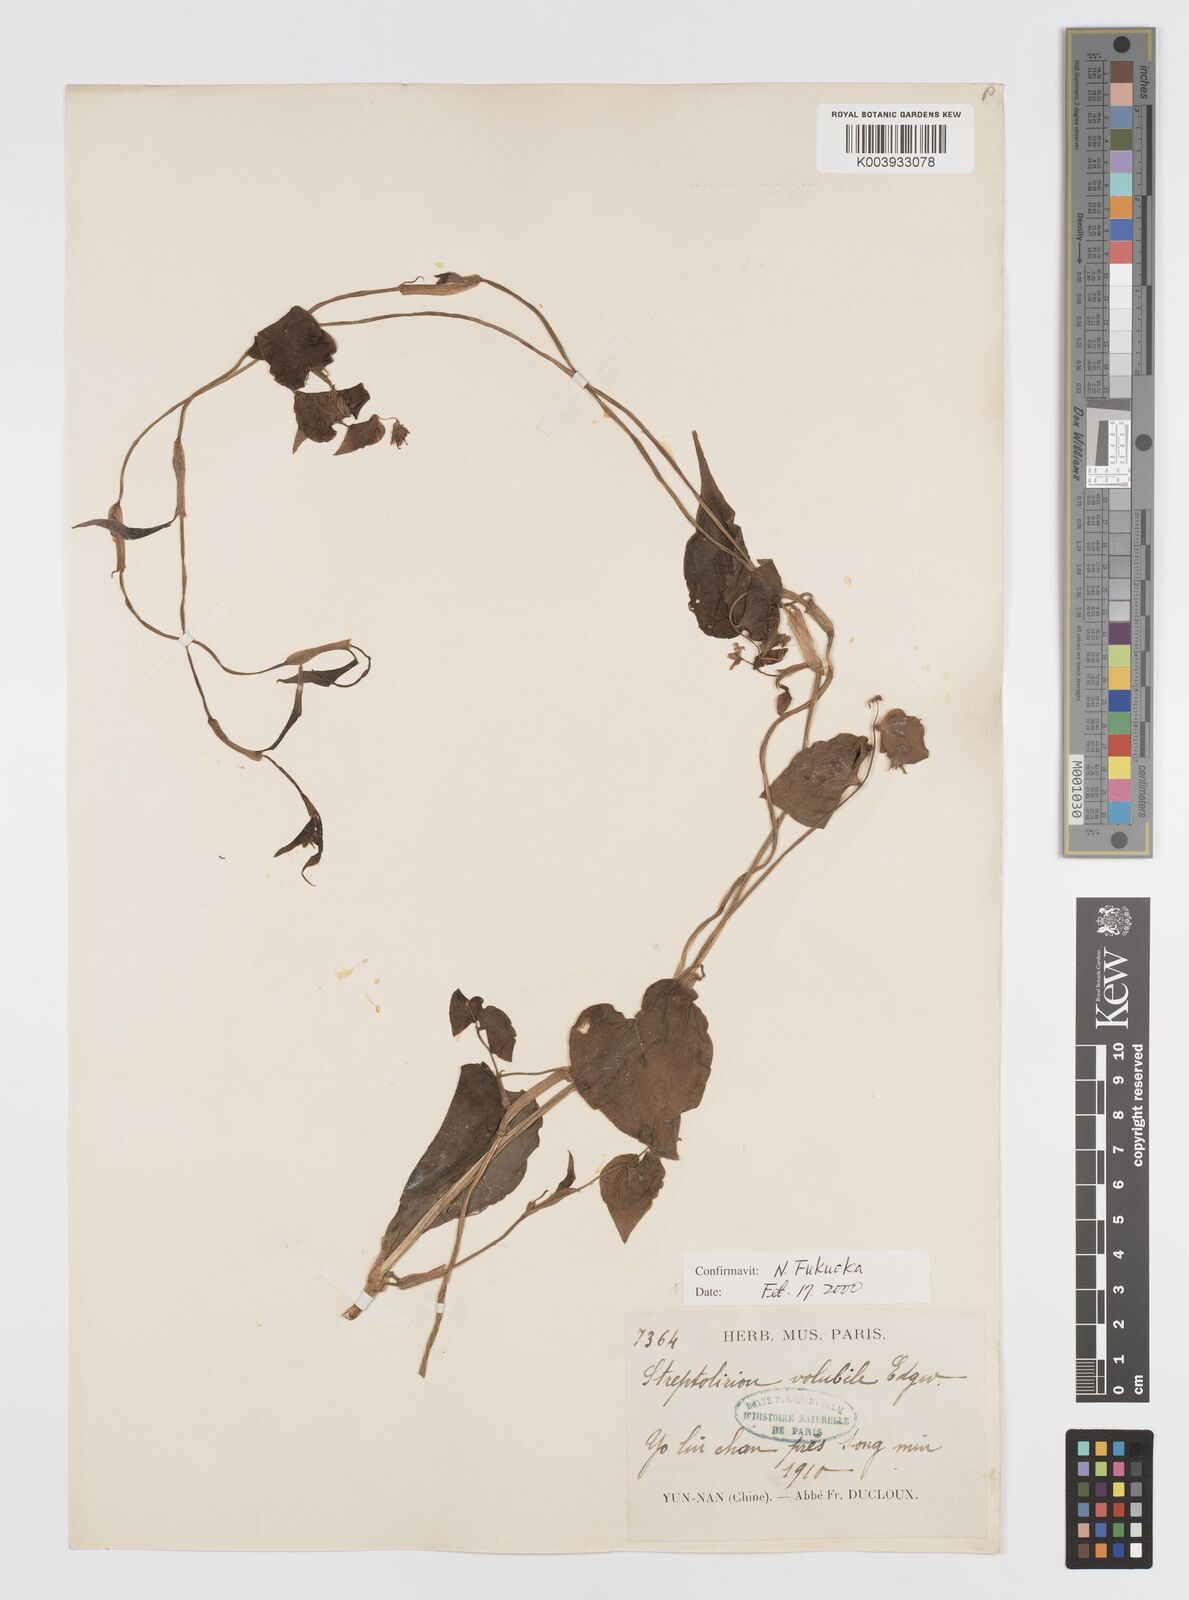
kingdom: Plantae
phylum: Tracheophyta
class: Liliopsida
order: Commelinales
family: Commelinaceae
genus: Streptolirion
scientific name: Streptolirion volubile
